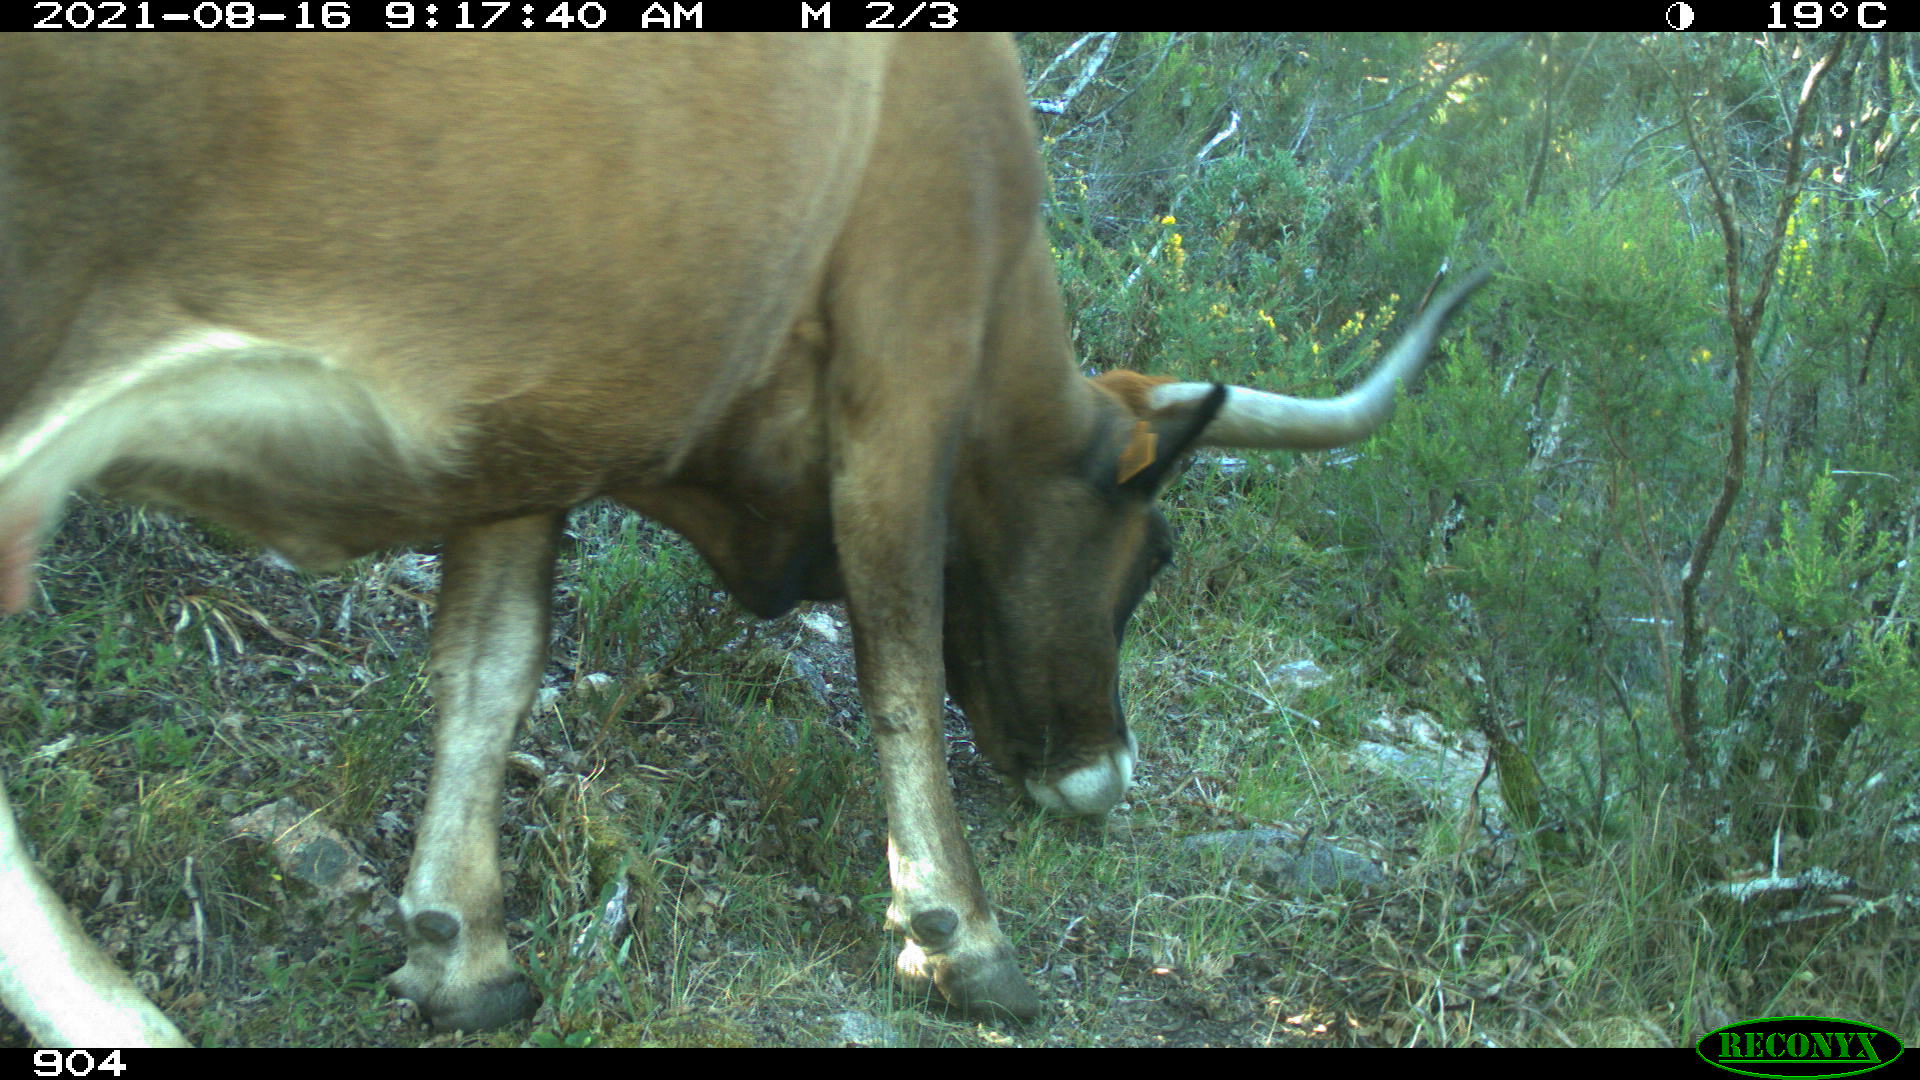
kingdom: Animalia
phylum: Chordata
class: Mammalia
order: Artiodactyla
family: Bovidae
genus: Bos
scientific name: Bos taurus
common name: Domesticated cattle
